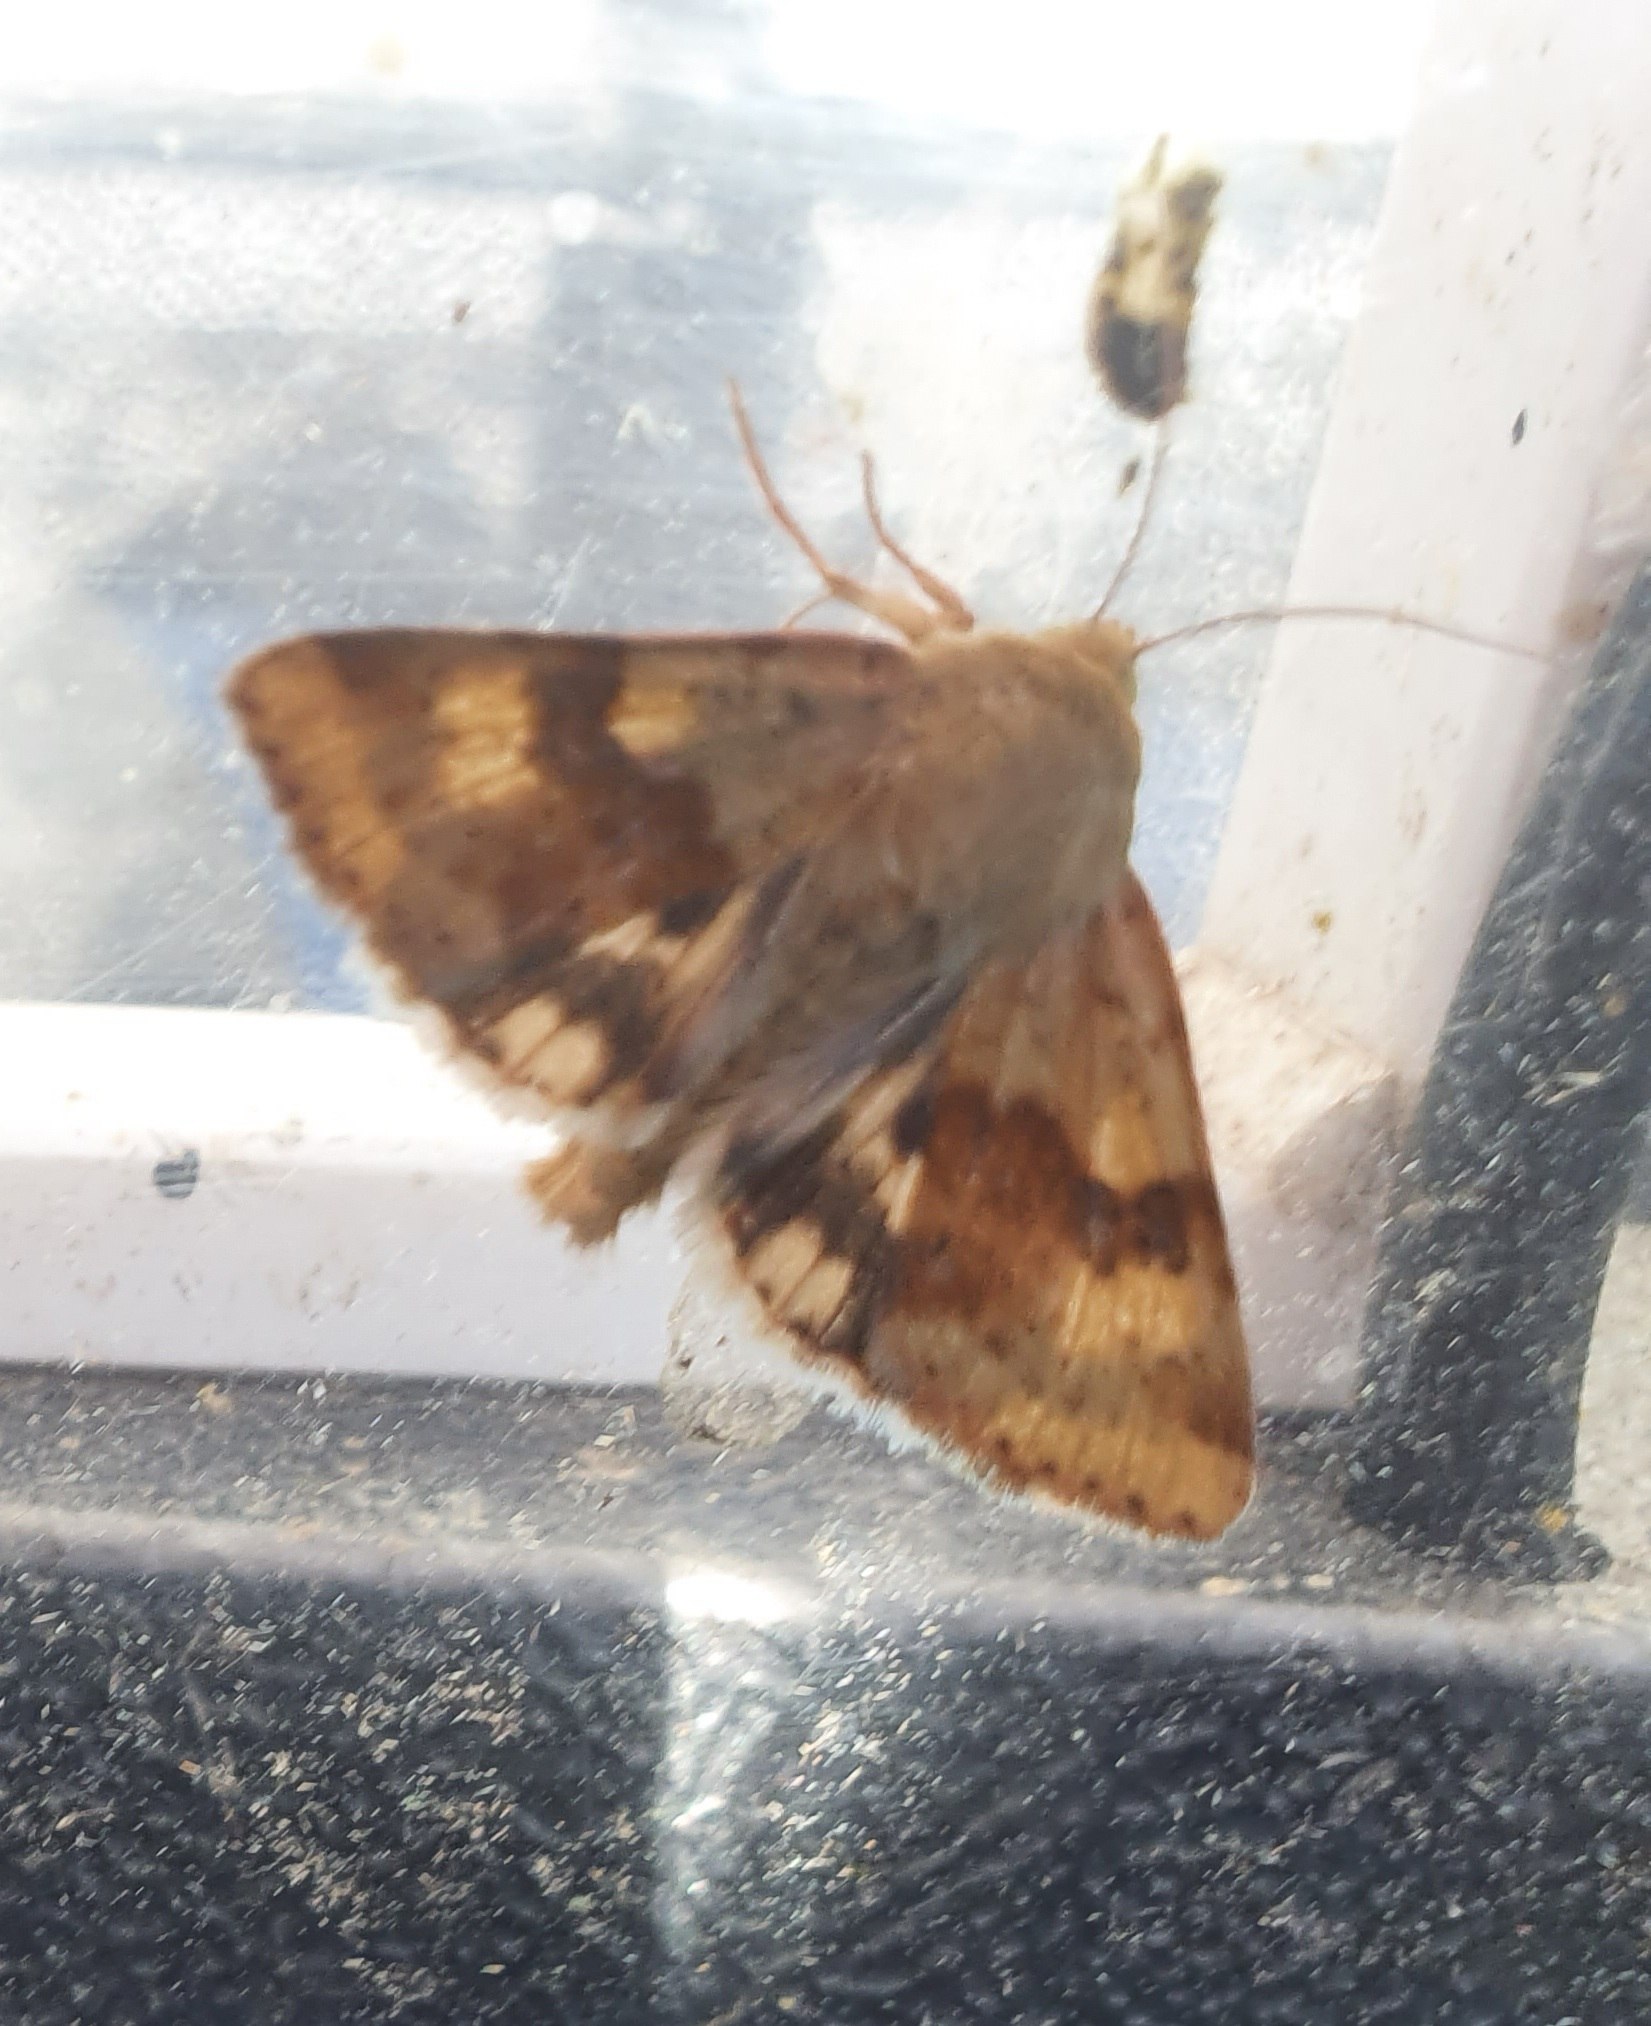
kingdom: Animalia
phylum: Arthropoda
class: Insecta
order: Lepidoptera
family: Noctuidae
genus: Heliothis
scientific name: Heliothis viriplaca
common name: Cikorieugle
